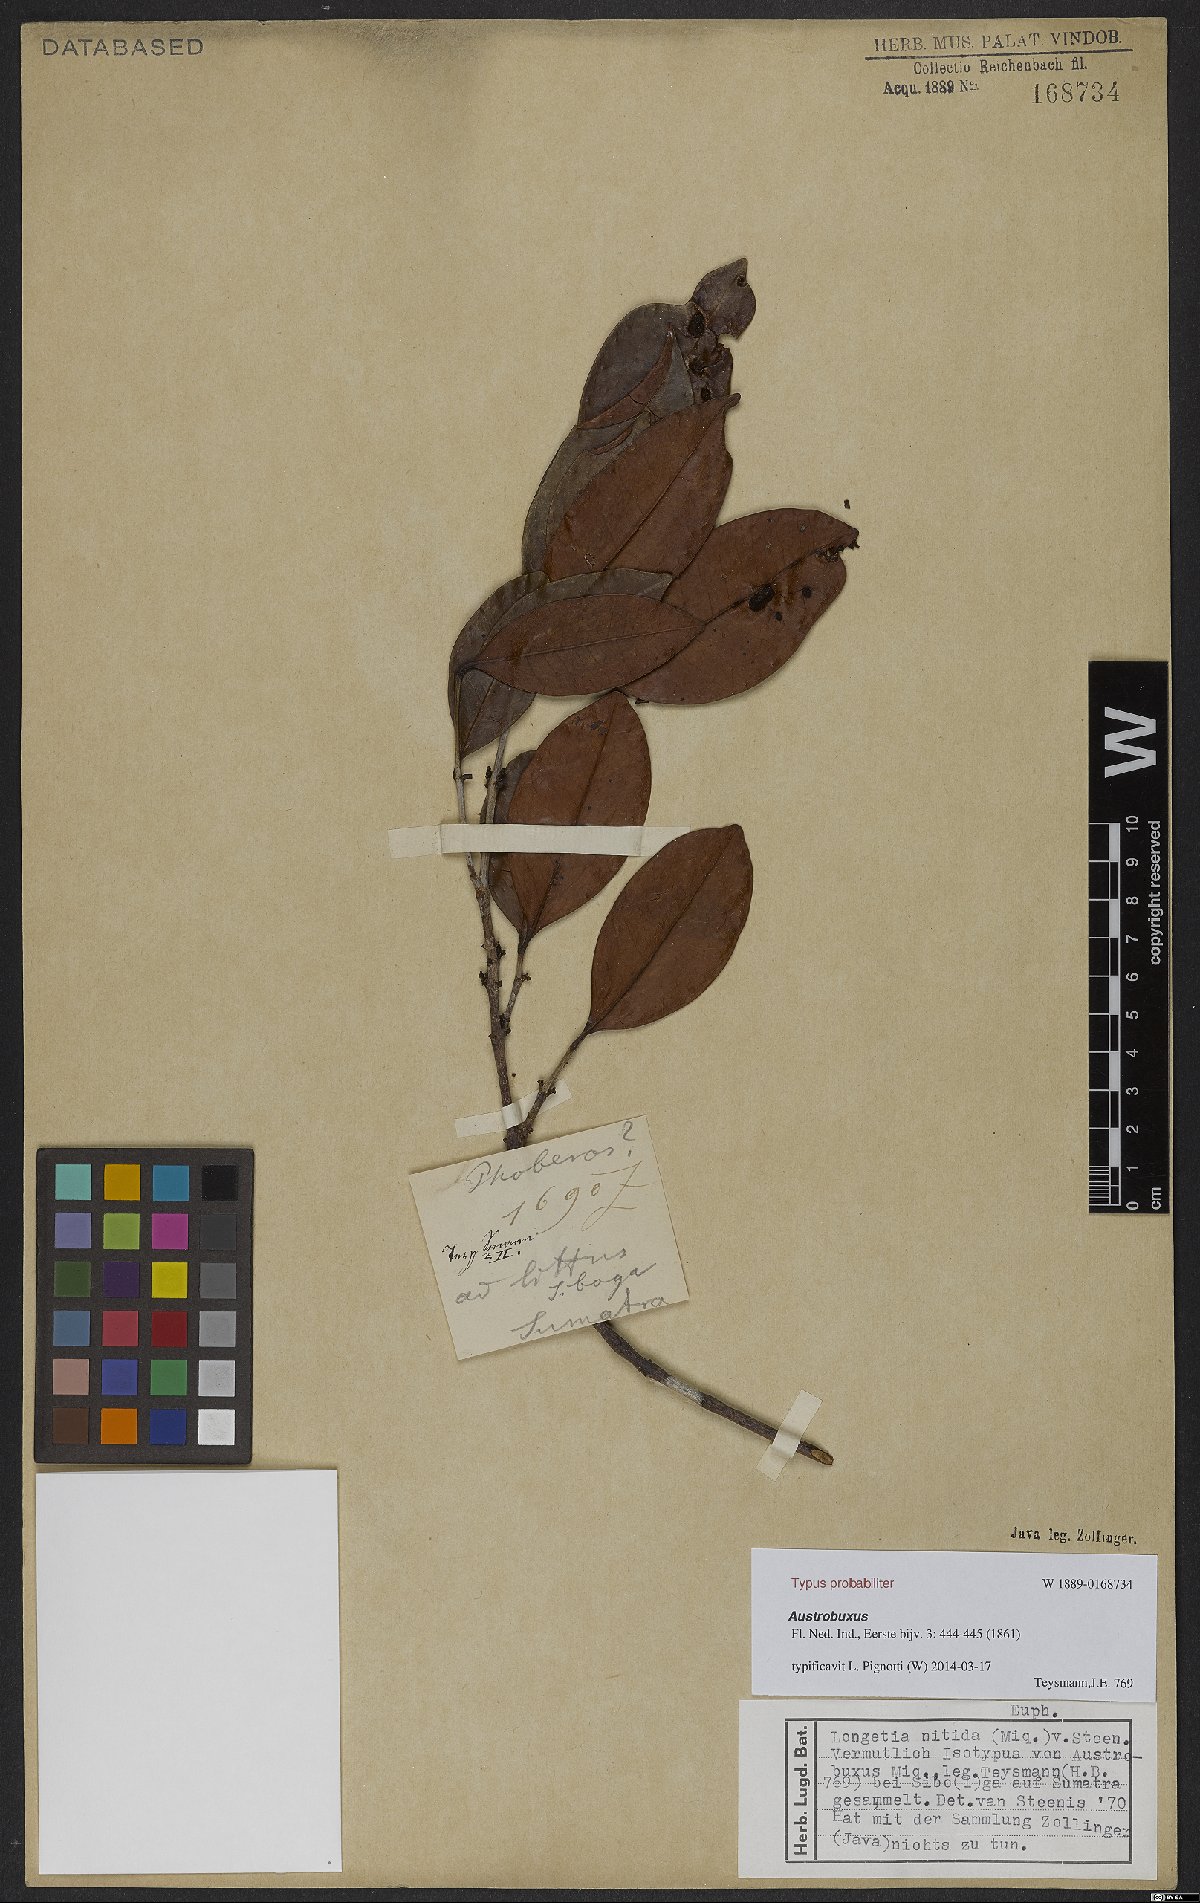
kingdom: Plantae
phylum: Tracheophyta
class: Magnoliopsida
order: Malpighiales
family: Picrodendraceae
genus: Austrobuxus
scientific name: Austrobuxus nitidus
